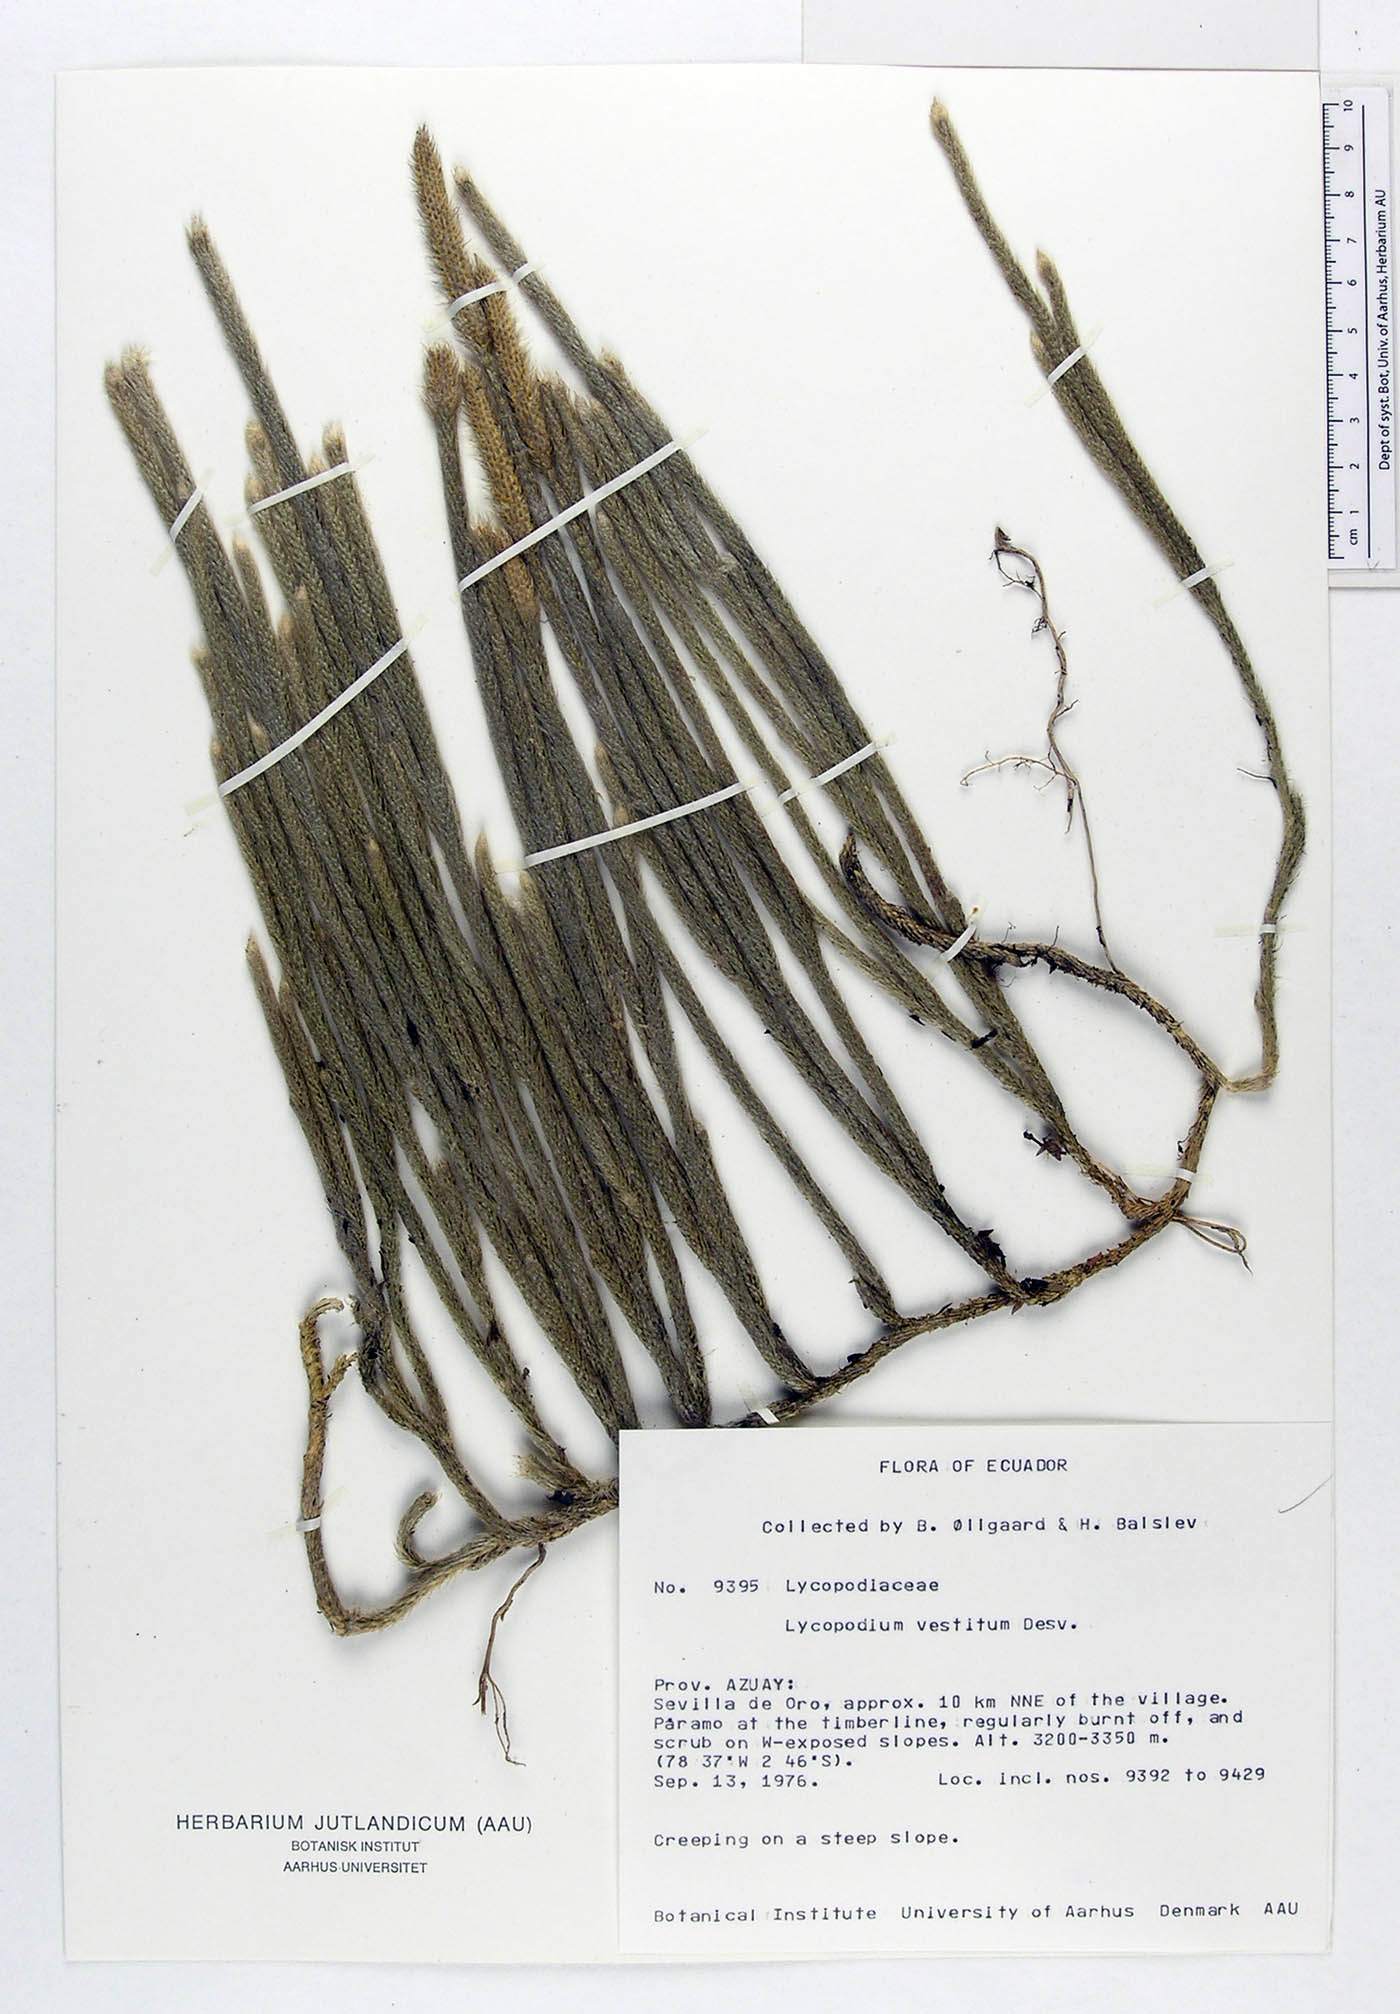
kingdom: Plantae
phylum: Tracheophyta
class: Lycopodiopsida
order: Lycopodiales
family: Lycopodiaceae
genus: Lycopodium
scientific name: Lycopodium vestitum
